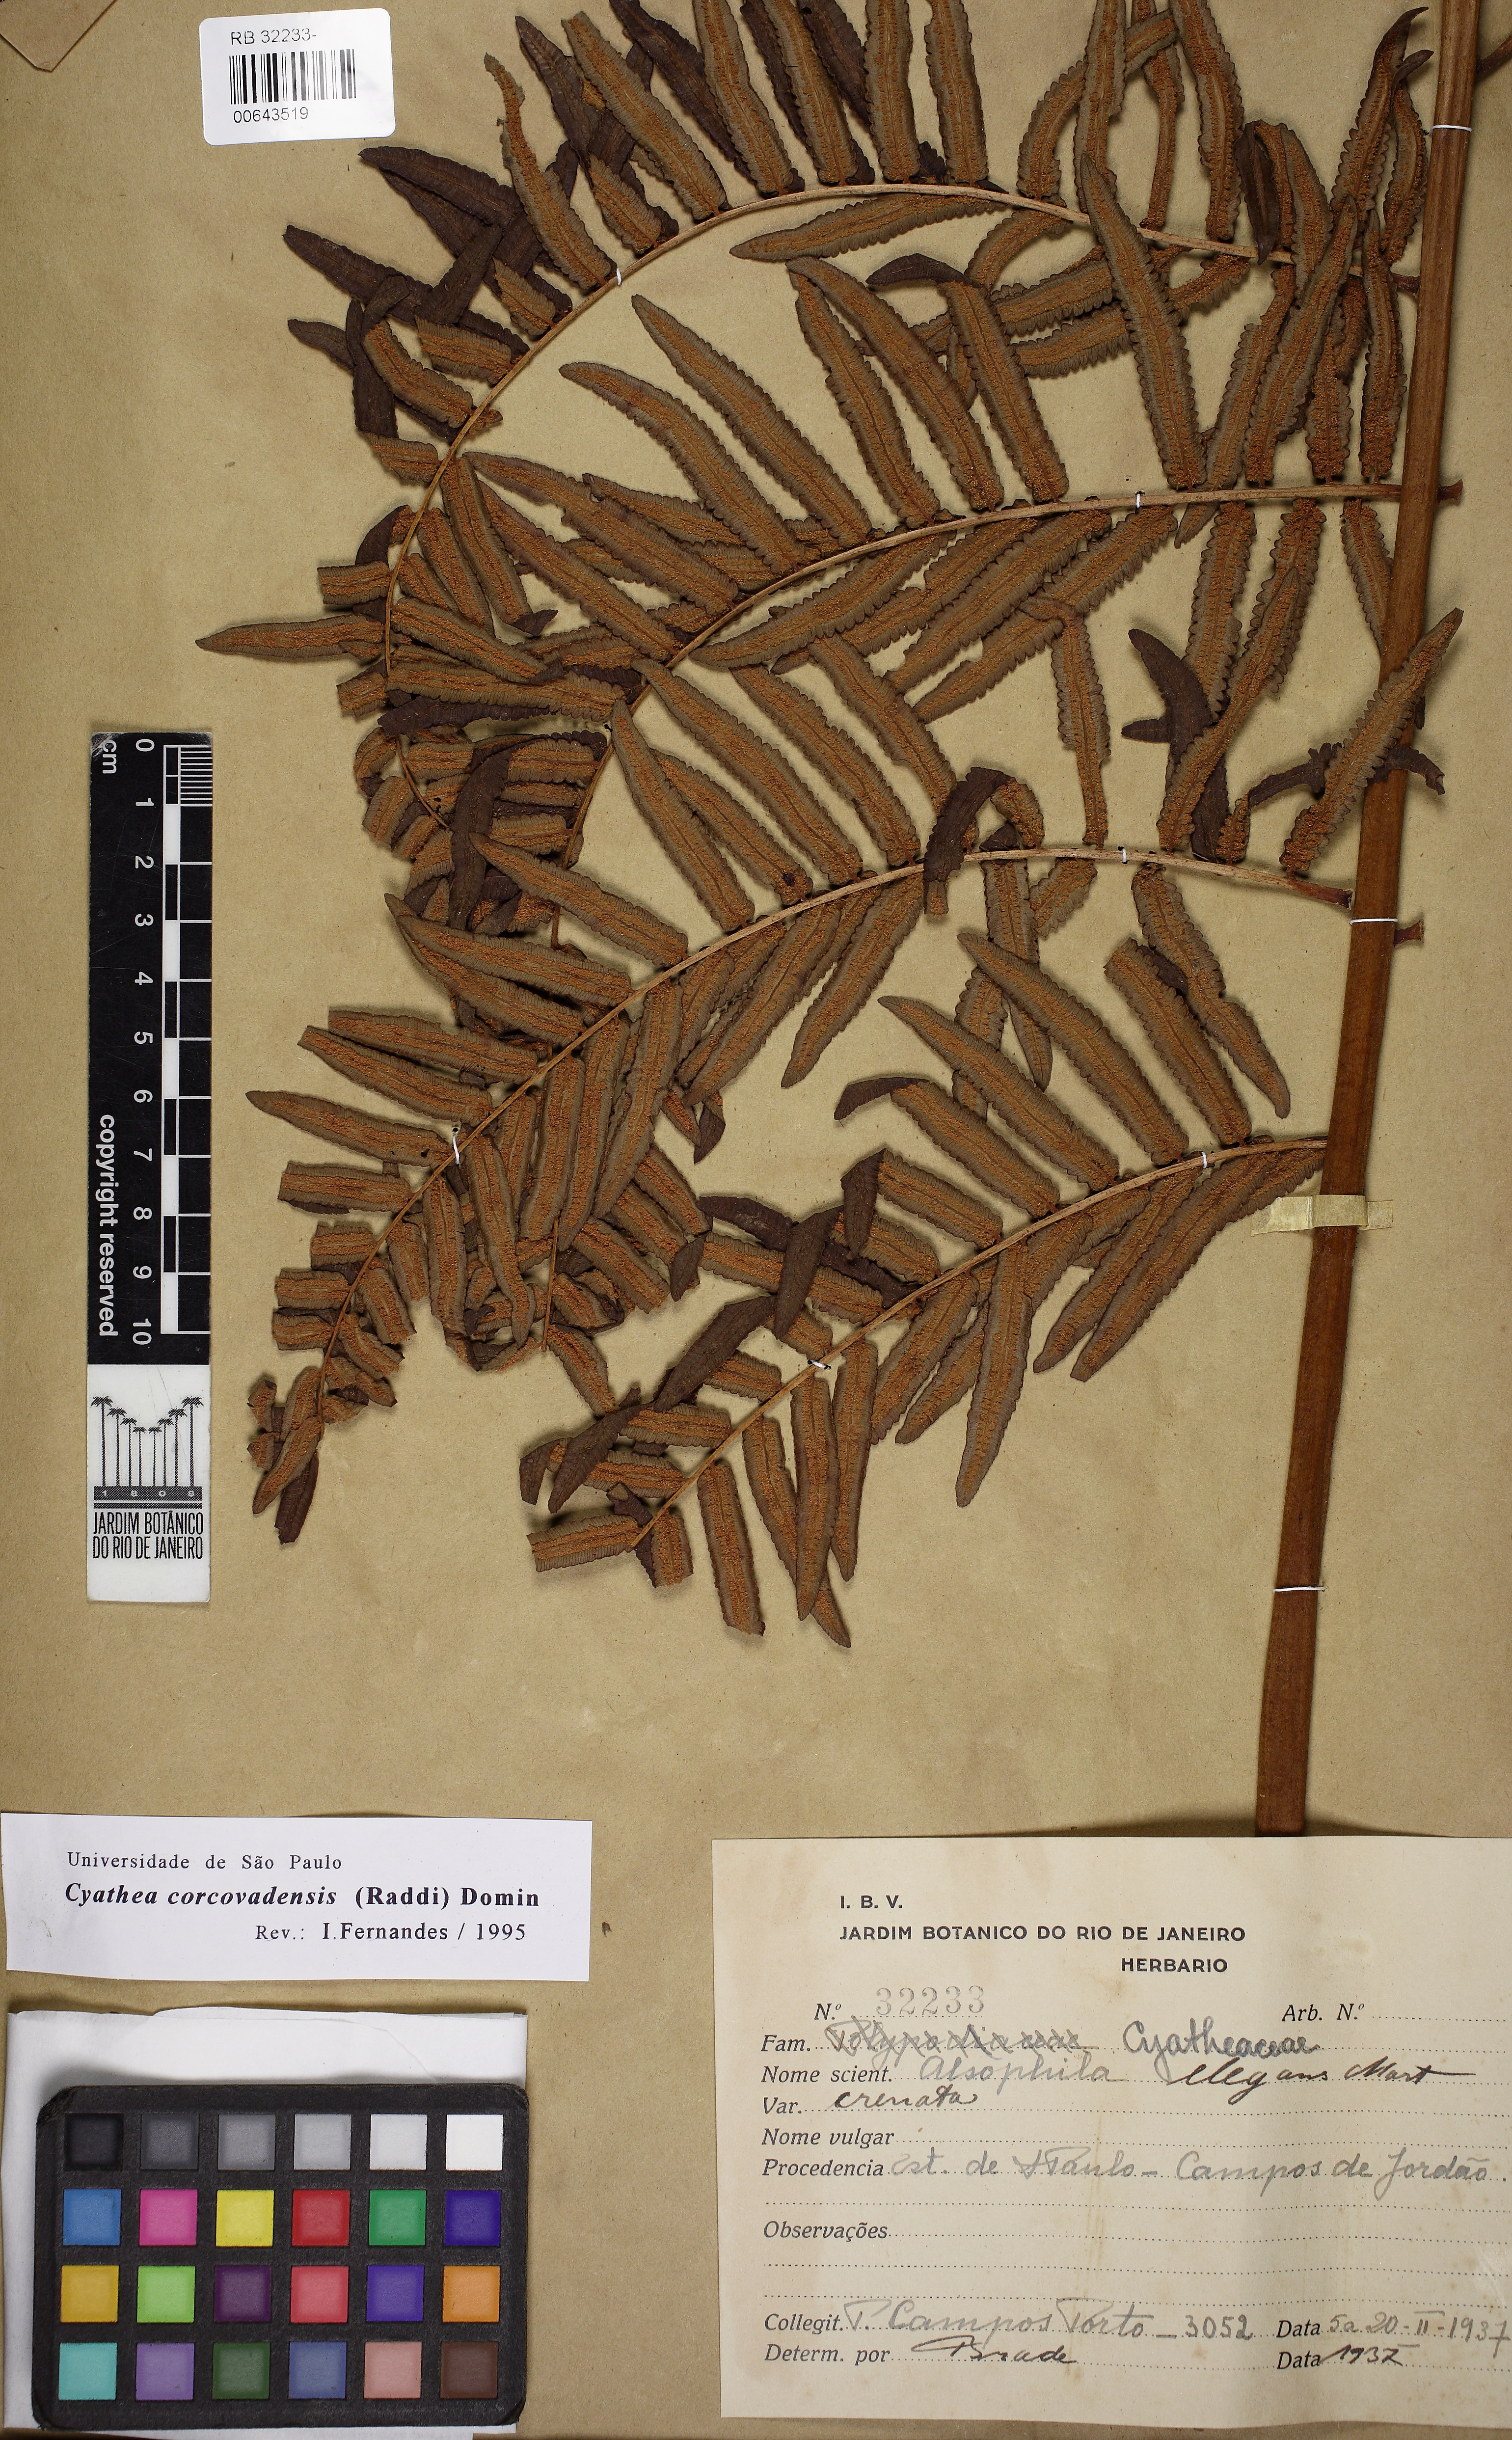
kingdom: Plantae
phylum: Tracheophyta
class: Polypodiopsida
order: Cyatheales
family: Cyatheaceae
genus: Cyathea
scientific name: Cyathea corcovadensis
